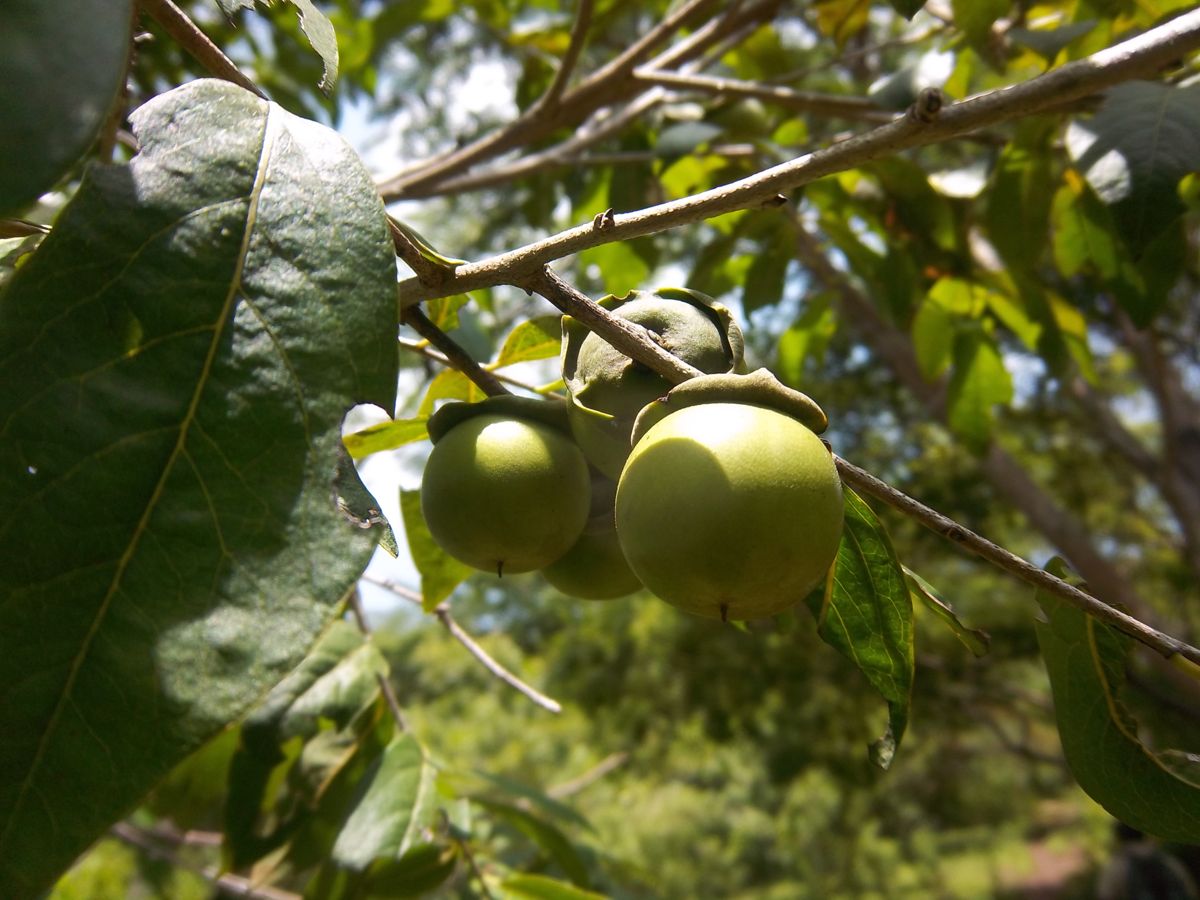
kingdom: Plantae
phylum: Tracheophyta
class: Magnoliopsida
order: Ericales
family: Ebenaceae
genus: Diospyros
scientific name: Diospyros salicifolia
